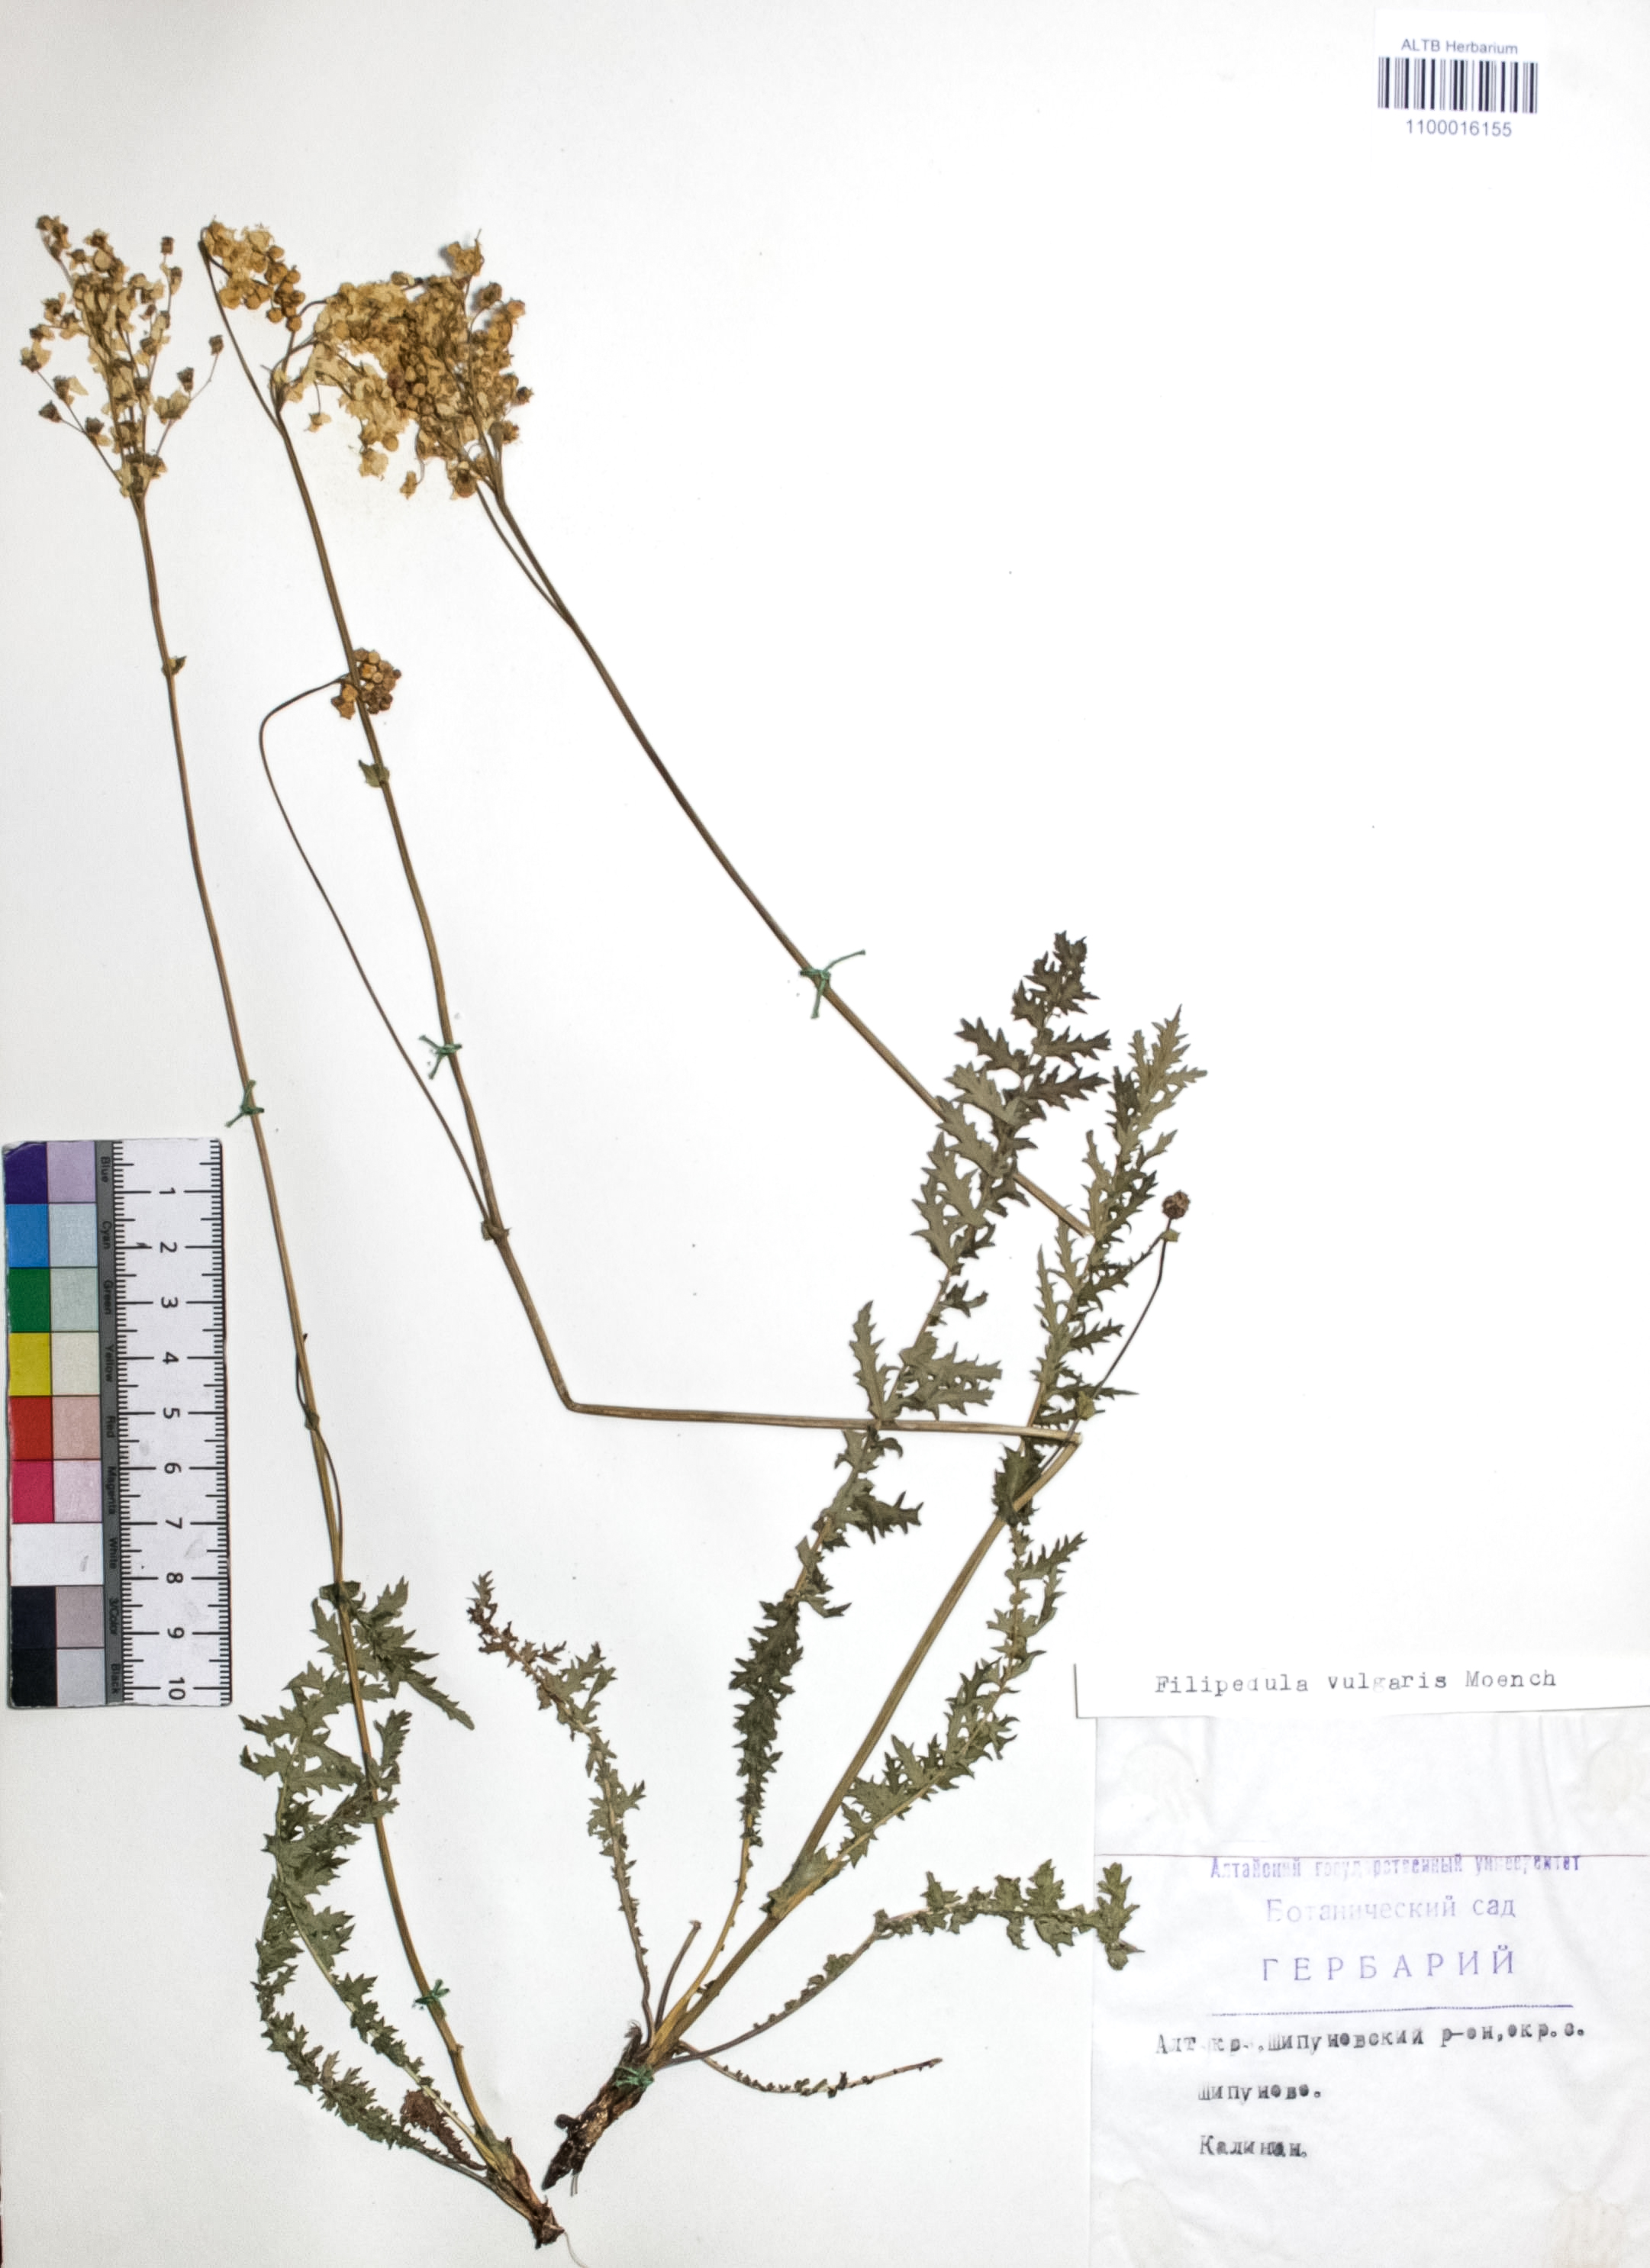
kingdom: Plantae
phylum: Tracheophyta
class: Magnoliopsida
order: Rosales
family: Rosaceae
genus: Filipendula
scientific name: Filipendula vulgaris
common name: Dropwort
